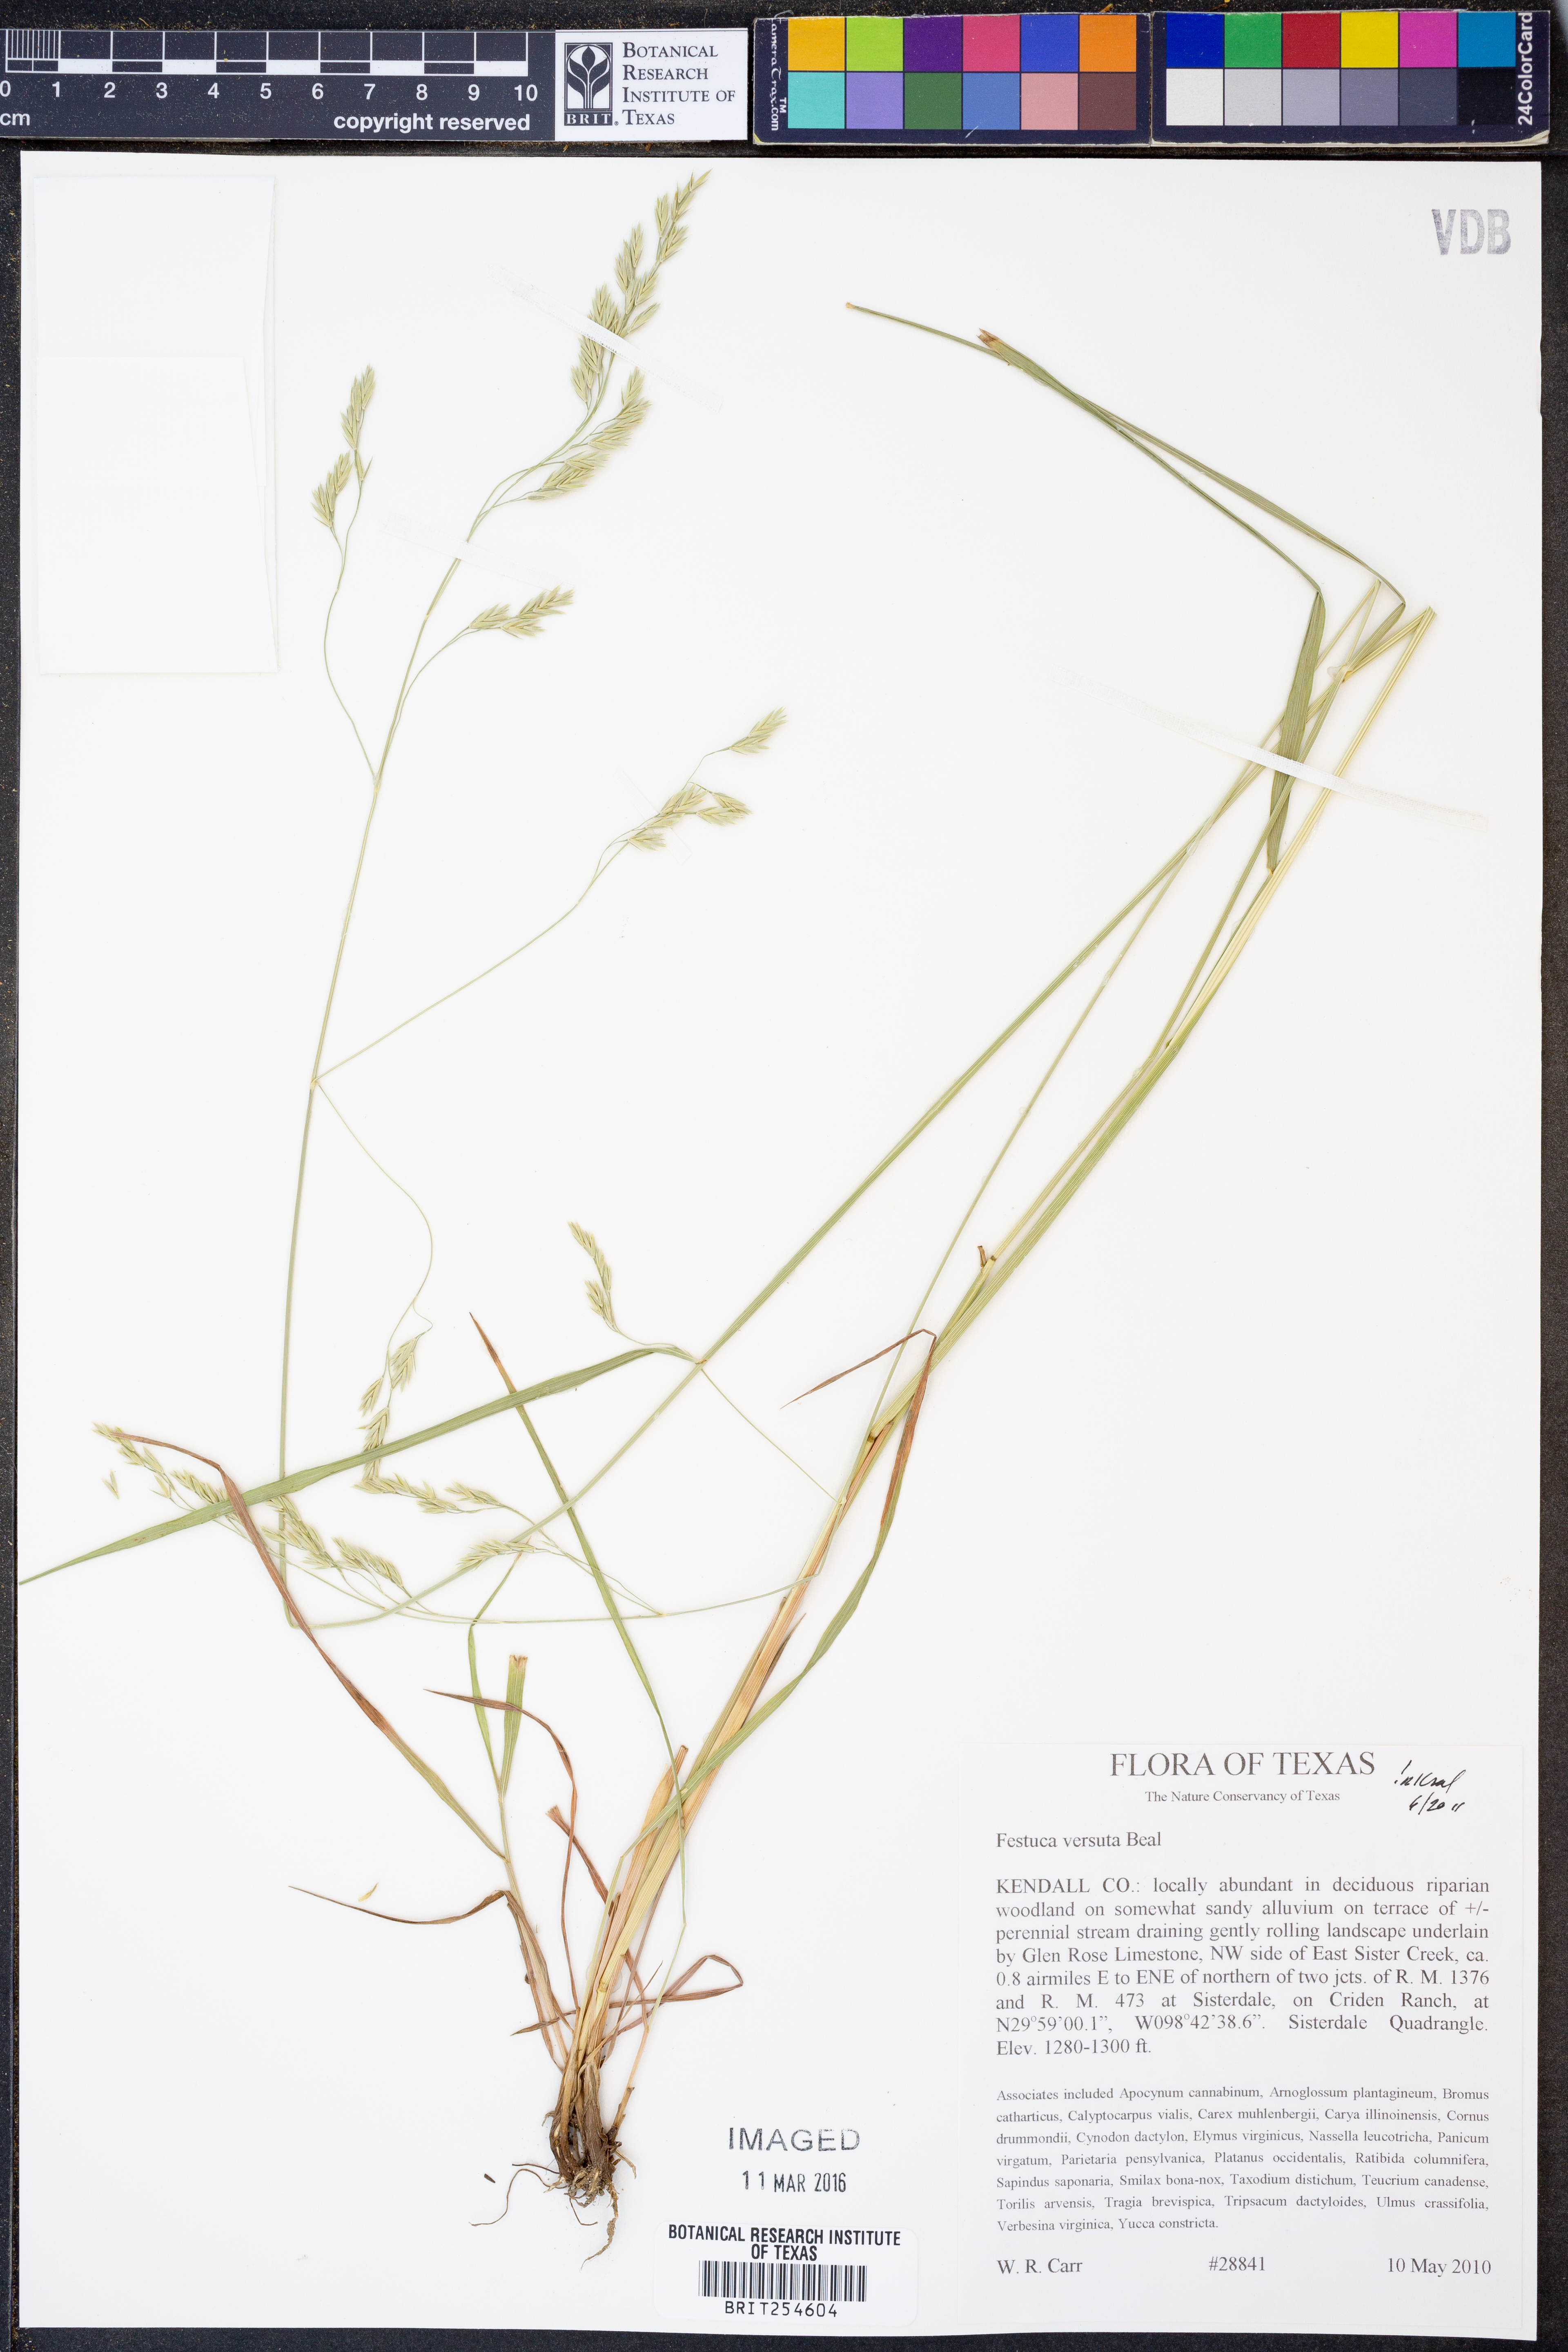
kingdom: Plantae
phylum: Tracheophyta
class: Liliopsida
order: Poales
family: Poaceae
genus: Festuca
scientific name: Festuca versuta
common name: Texas fescue
